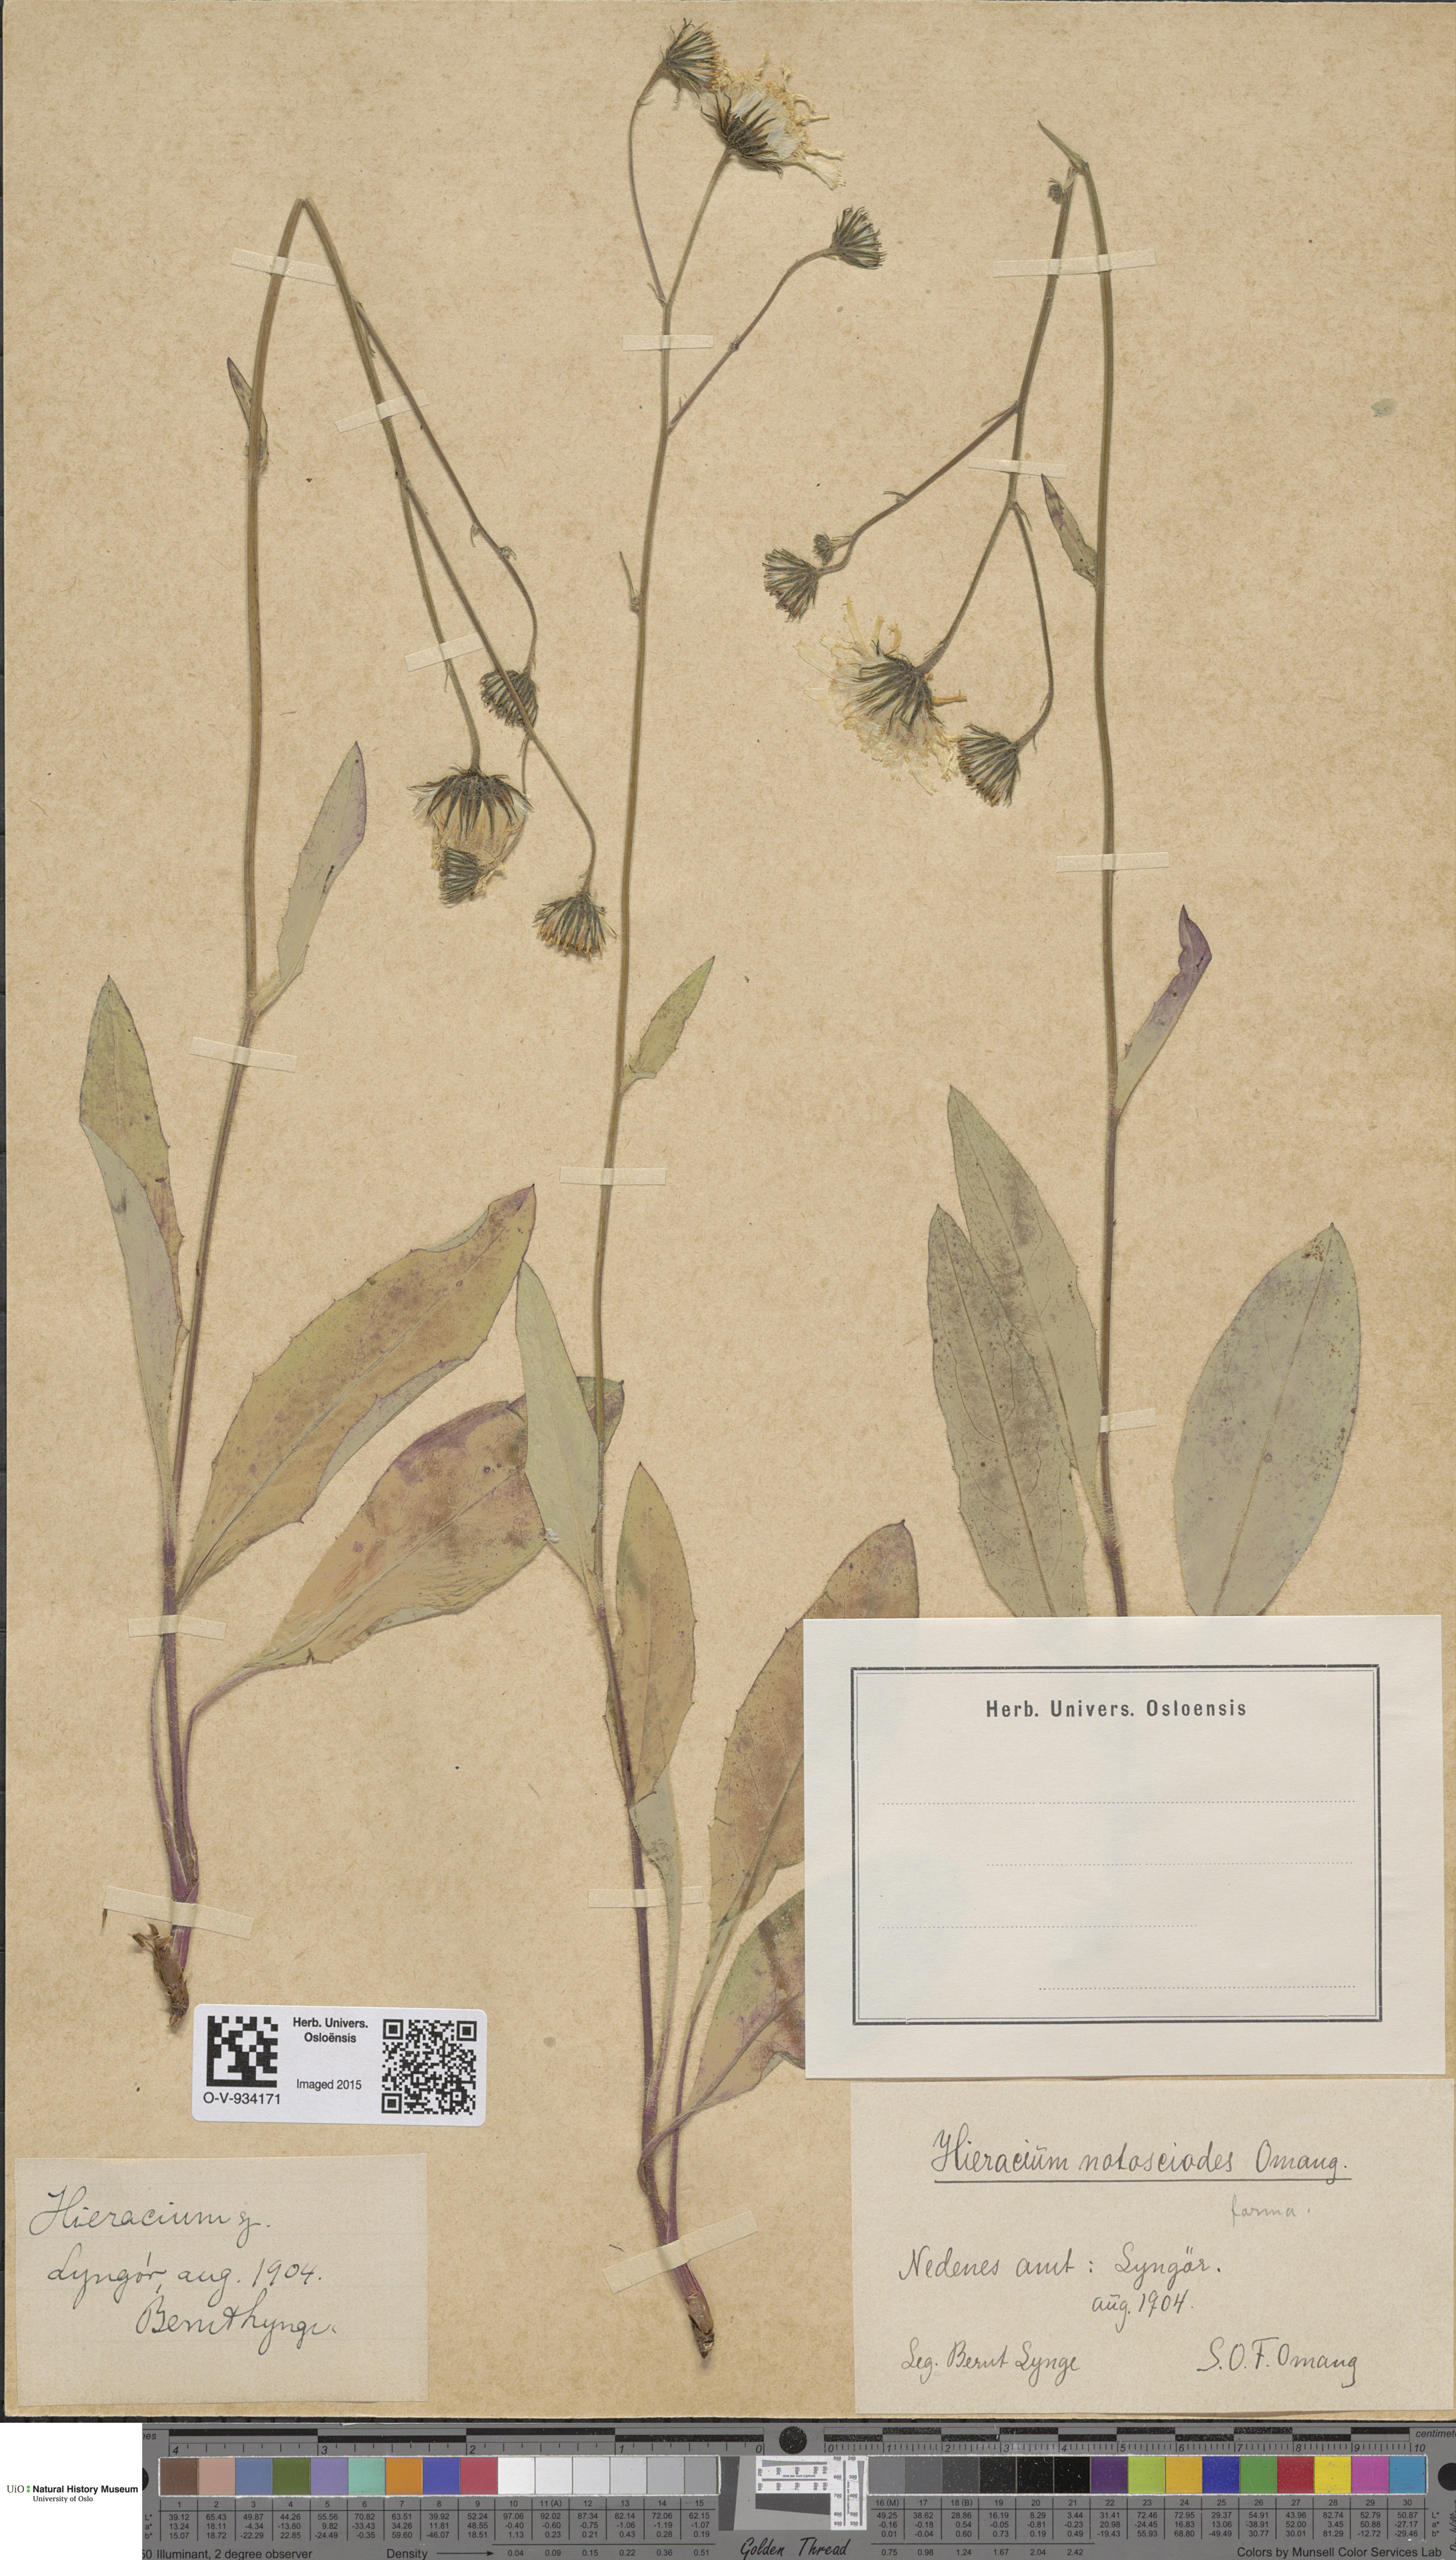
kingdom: Plantae
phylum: Tracheophyta
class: Magnoliopsida
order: Asterales
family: Asteraceae
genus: Hieracium
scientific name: Hieracium saxifragum
